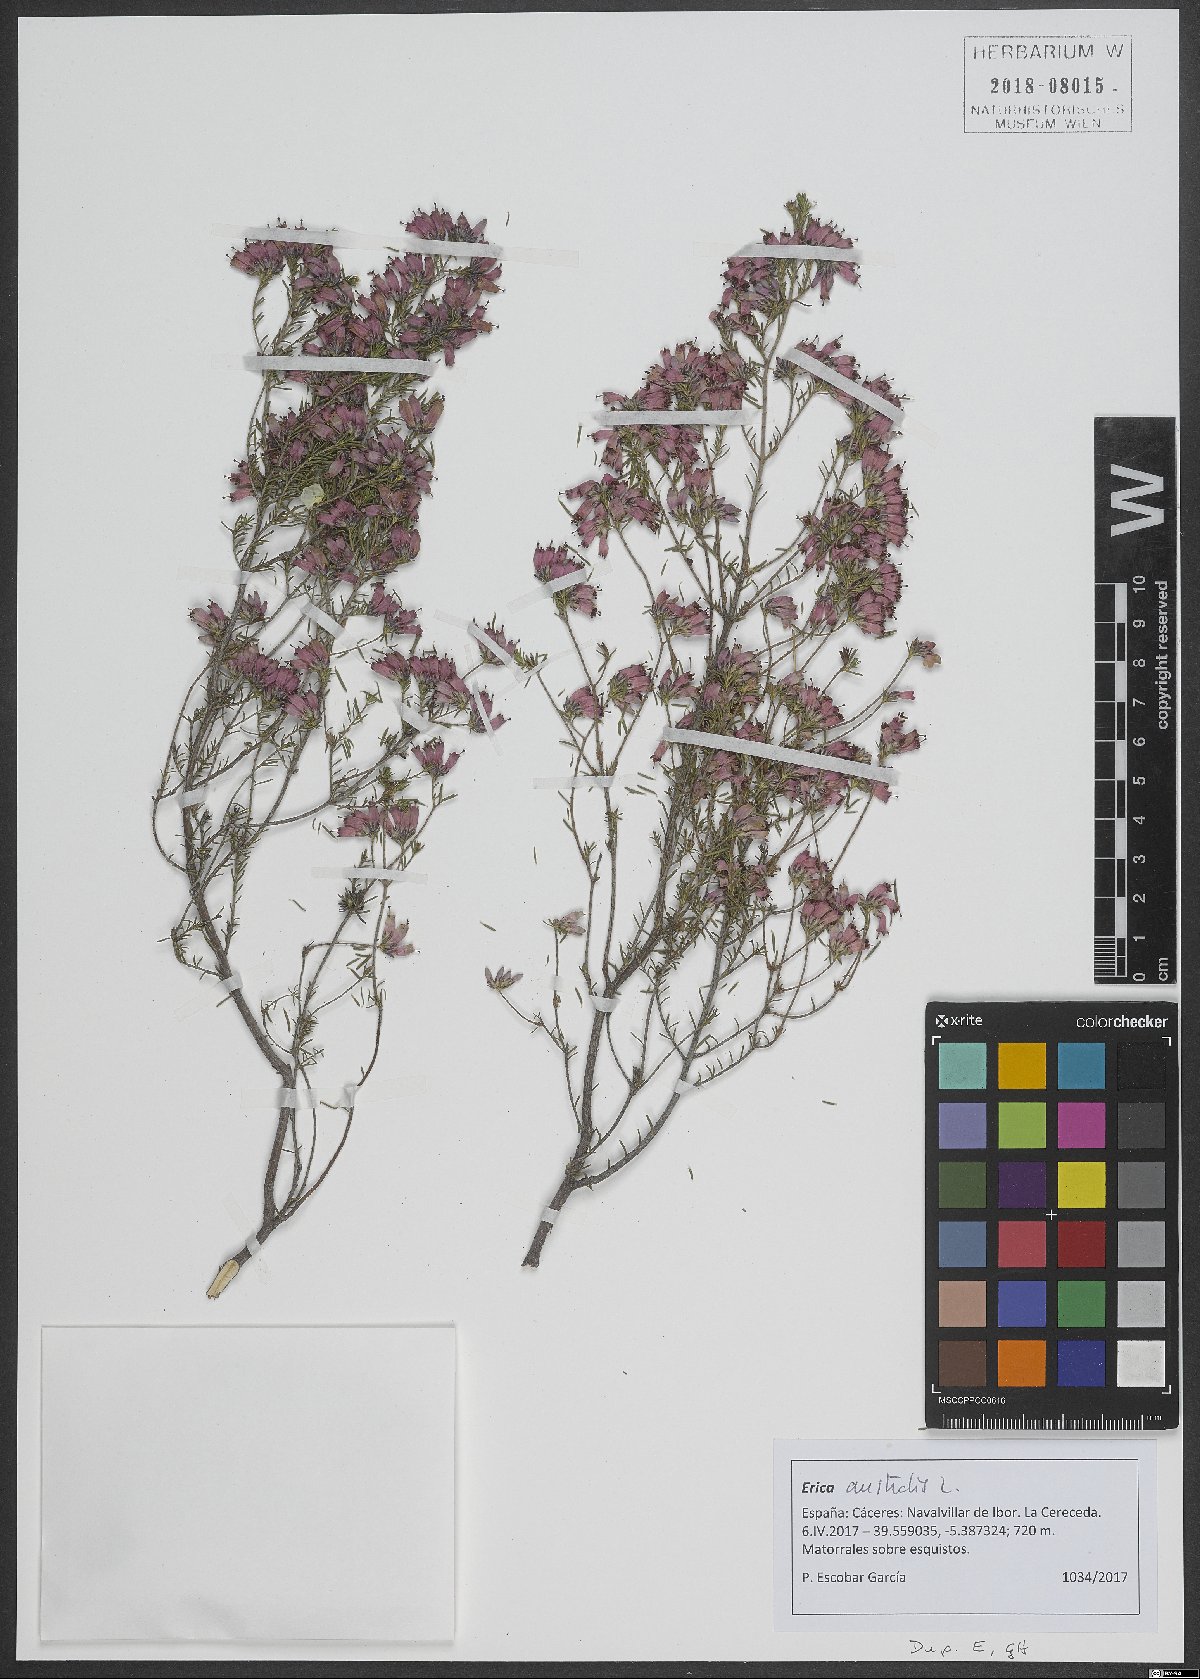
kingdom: Plantae
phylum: Tracheophyta
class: Magnoliopsida
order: Ericales
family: Ericaceae
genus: Erica
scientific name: Erica australis
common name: Spanish heath
